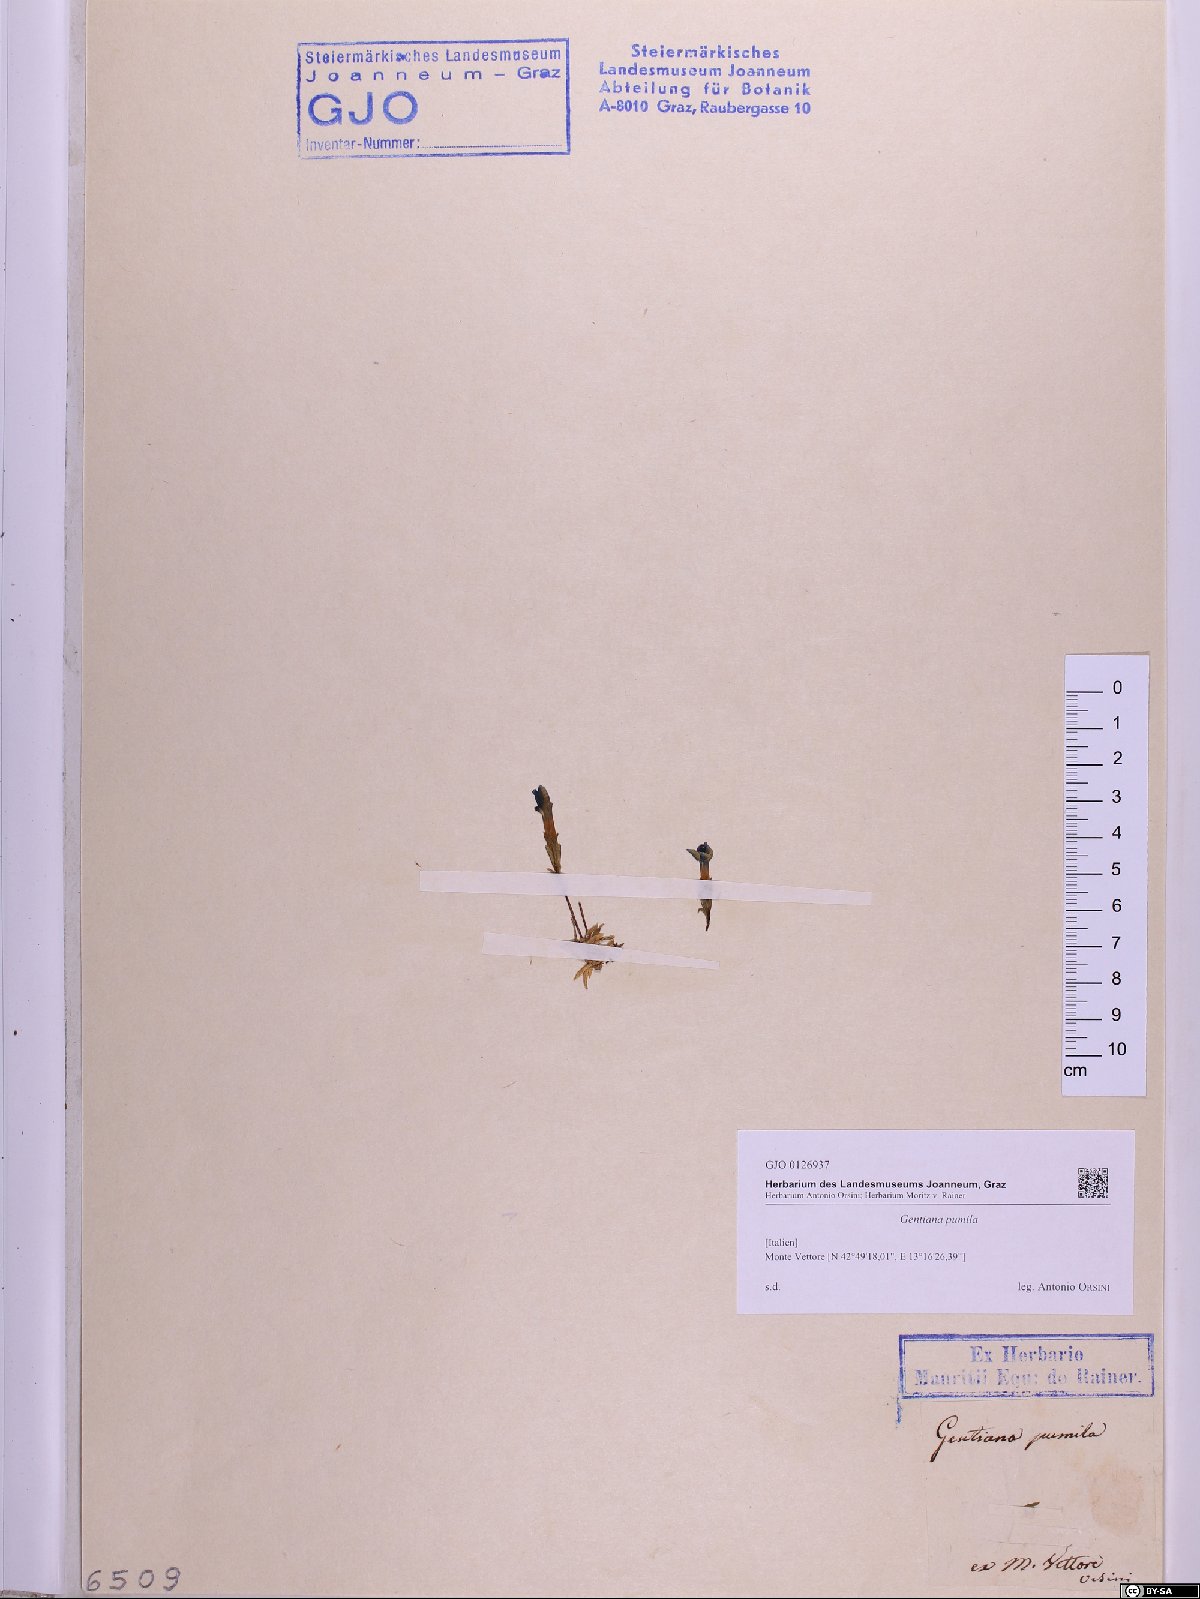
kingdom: Plantae
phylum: Tracheophyta
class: Magnoliopsida
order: Gentianales
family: Gentianaceae
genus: Gentiana
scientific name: Gentiana pumila
